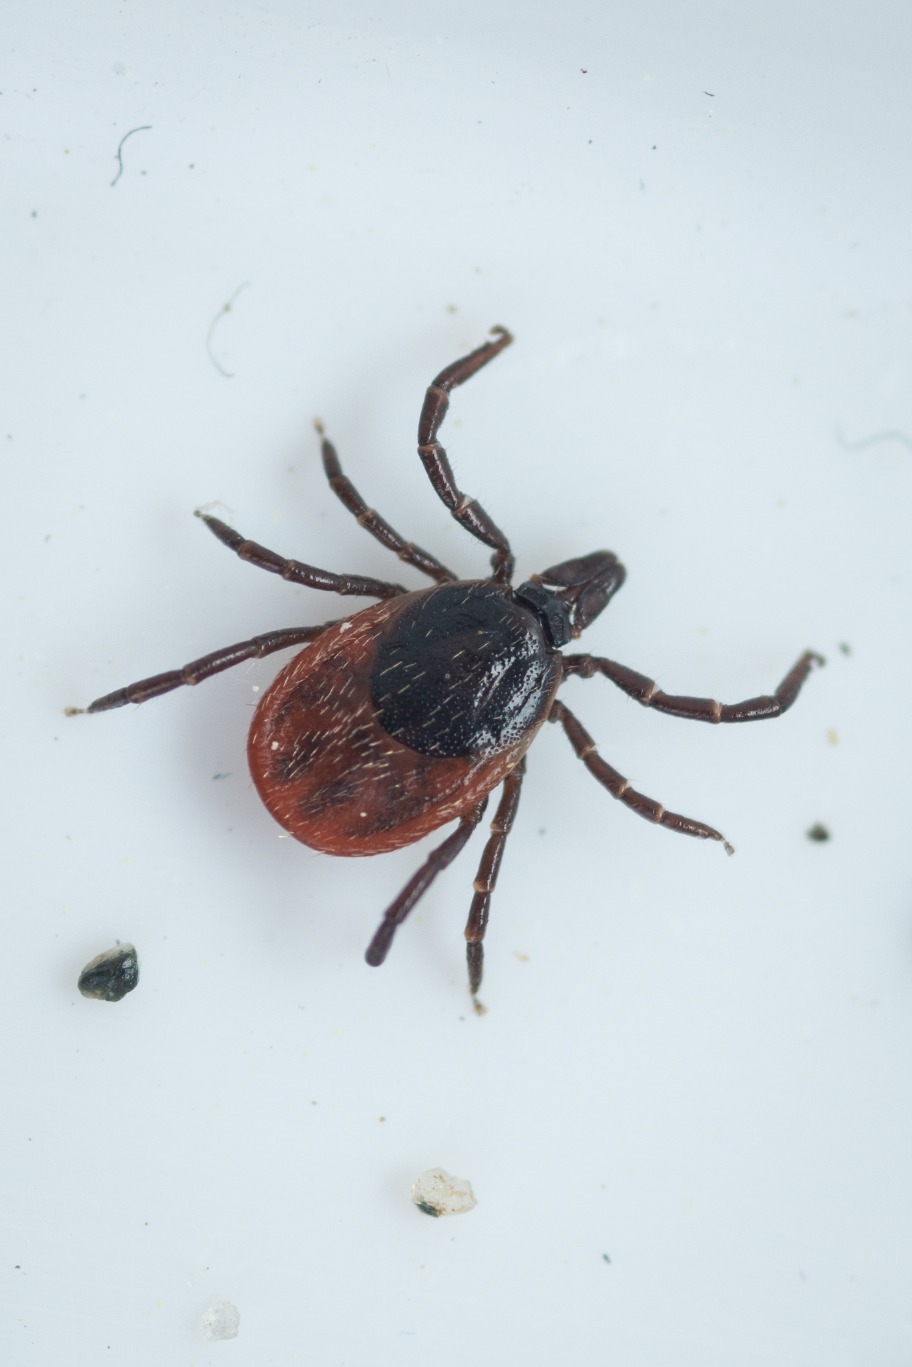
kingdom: Animalia
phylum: Arthropoda
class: Arachnida
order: Ixodida
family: Ixodidae
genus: Ixodes
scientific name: Ixodes ricinus
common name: Skovflåt
